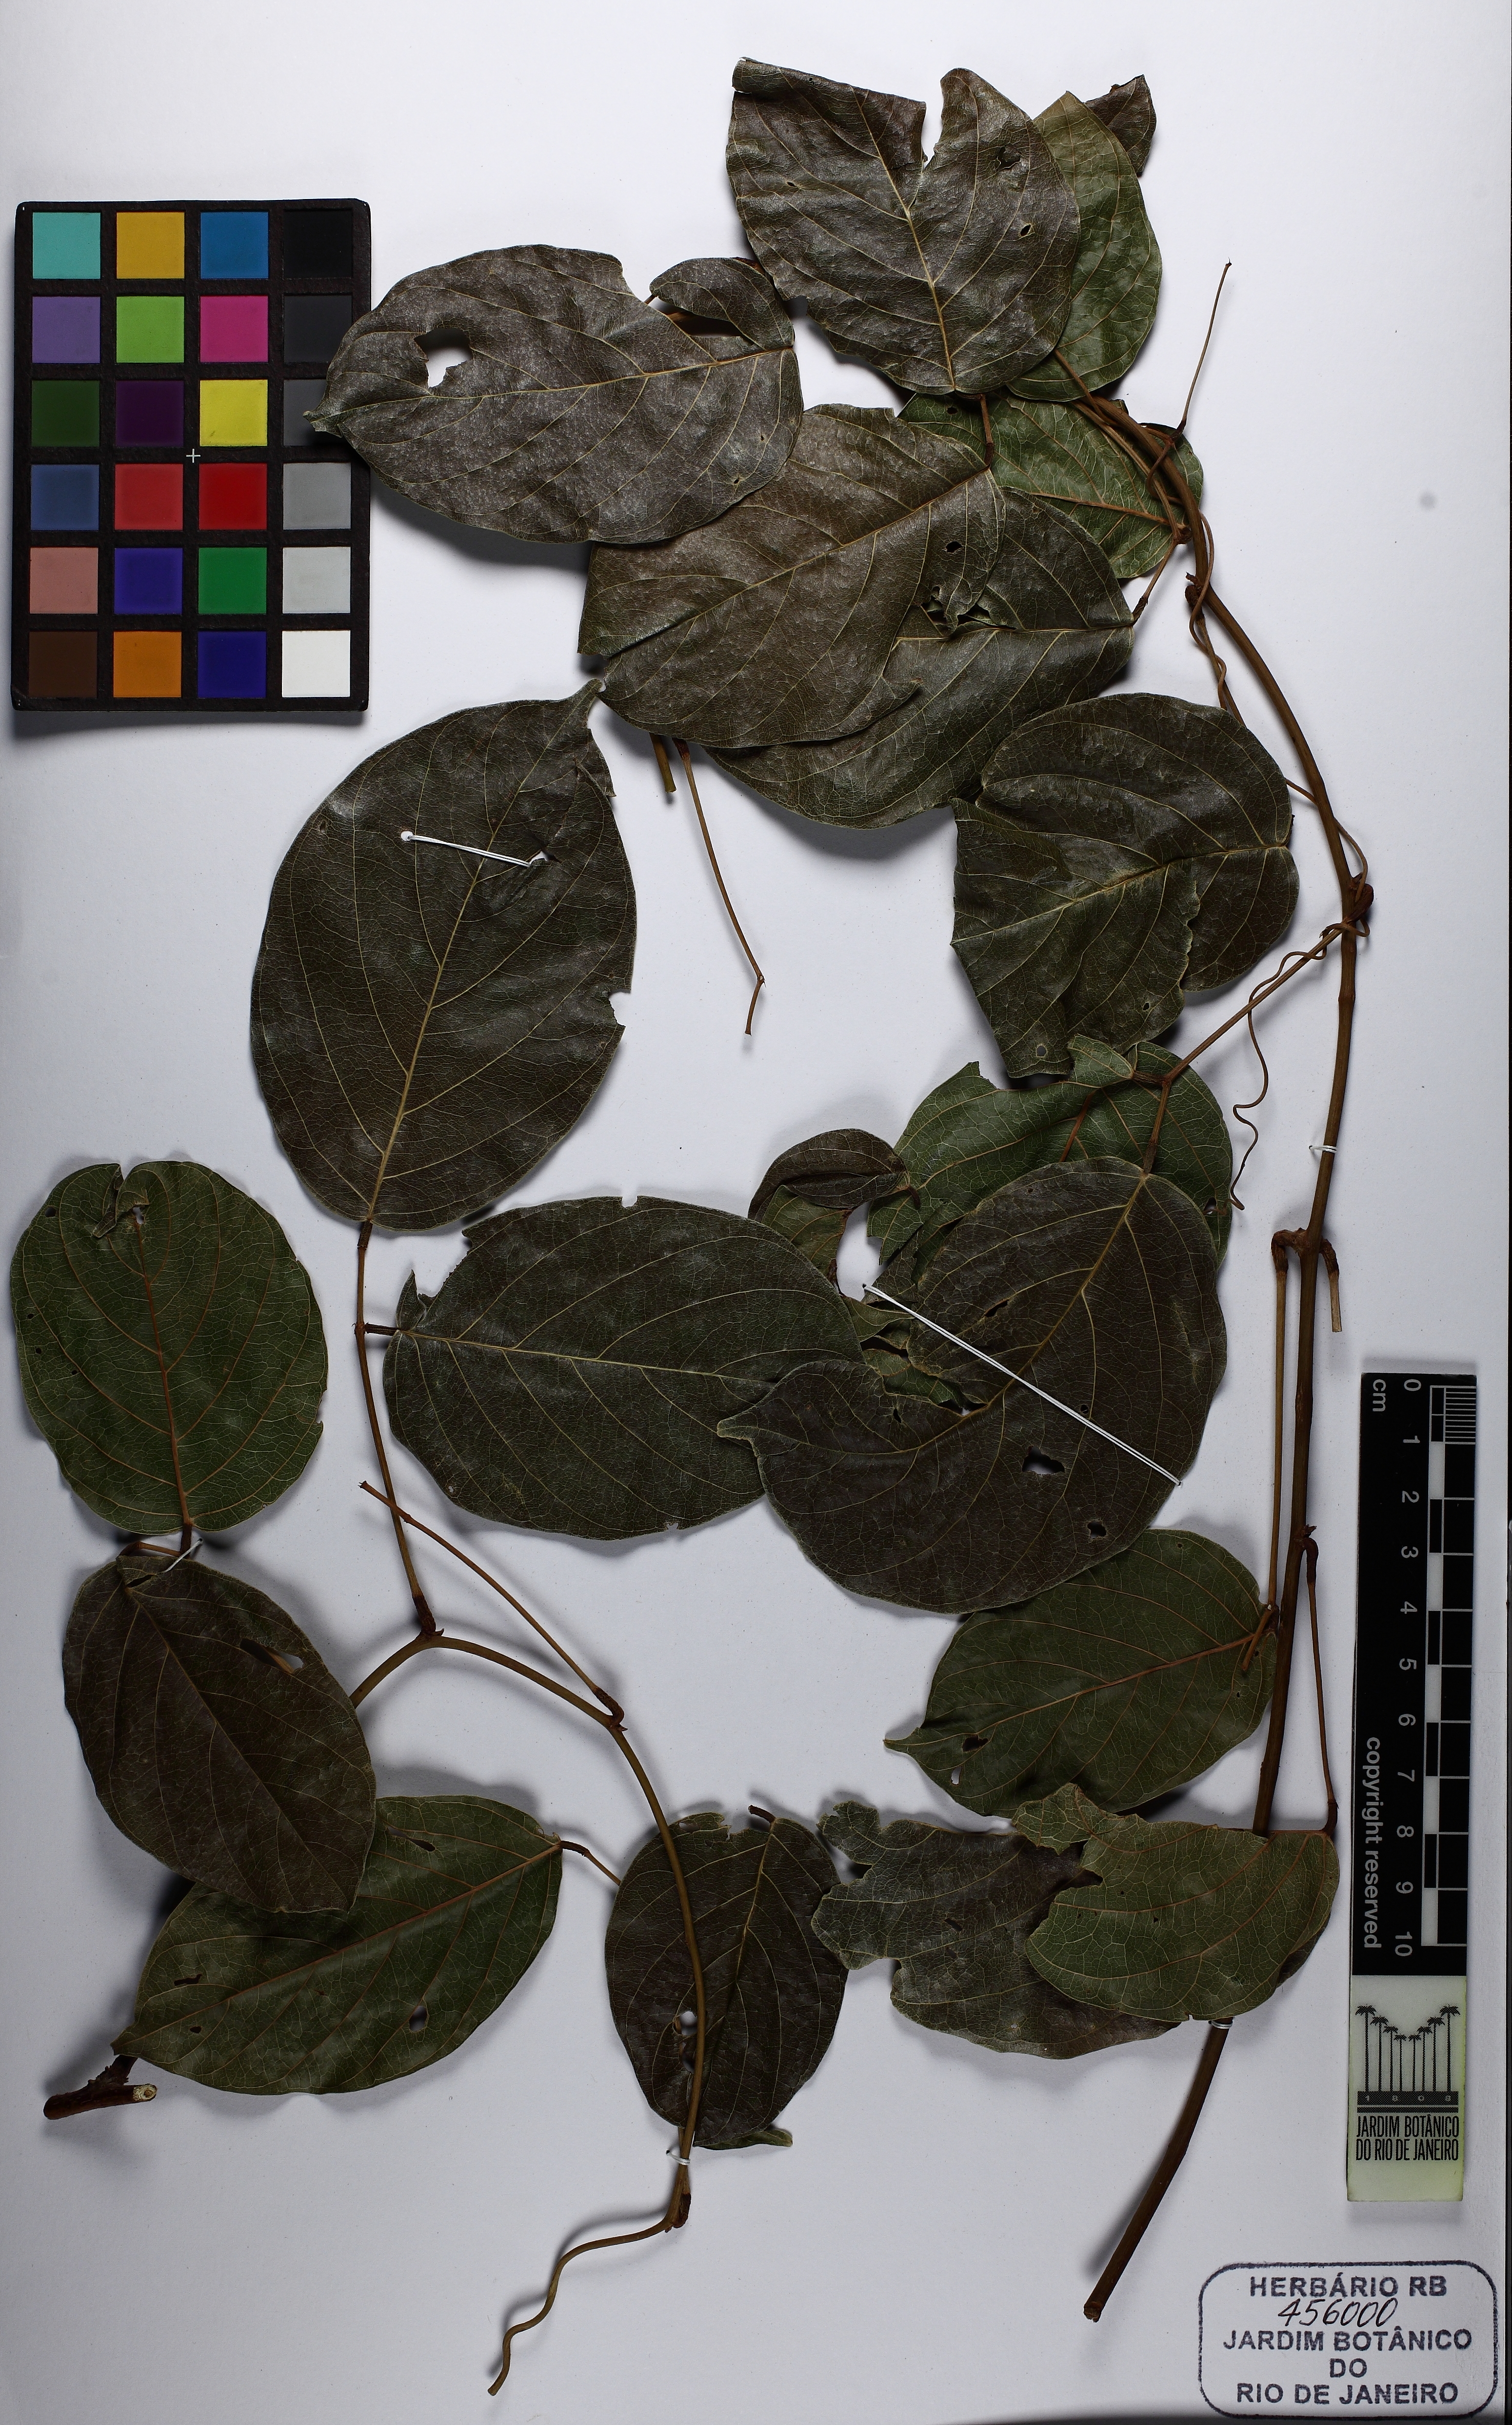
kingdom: Plantae
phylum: Tracheophyta
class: Magnoliopsida
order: Fabales
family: Fabaceae
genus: Macropsychanthus
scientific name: Macropsychanthus glaber
